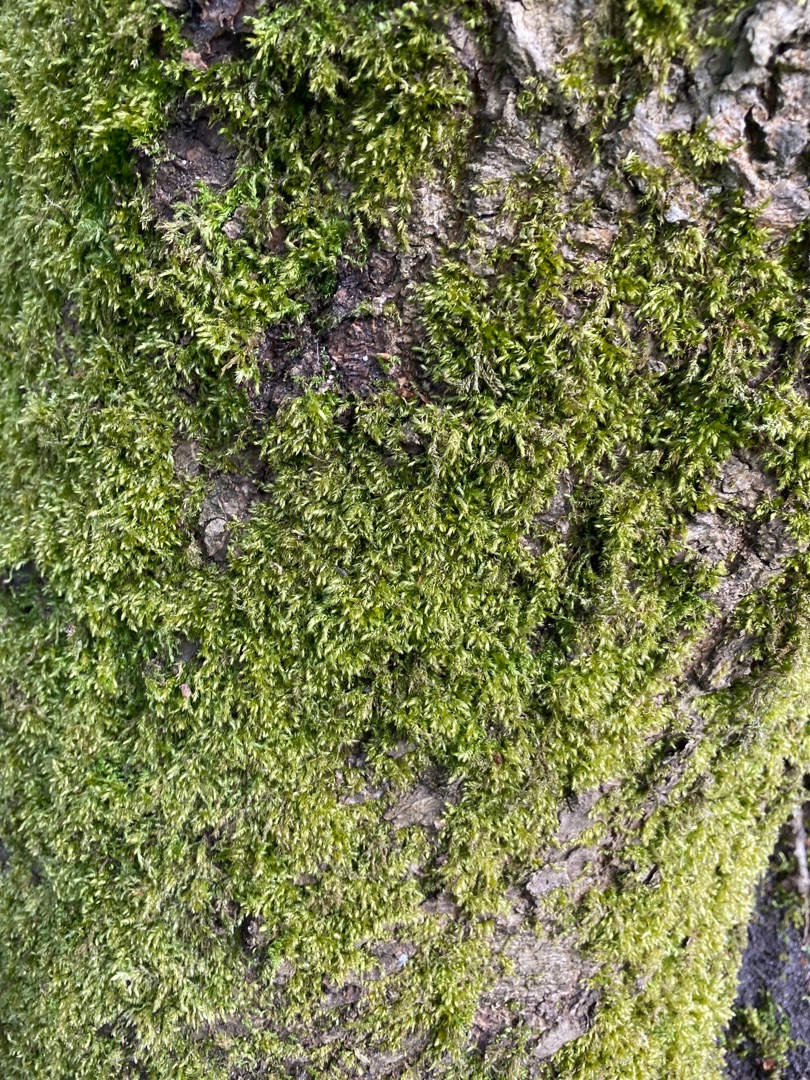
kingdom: Plantae
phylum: Bryophyta
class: Bryopsida
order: Hypnales
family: Brachytheciaceae
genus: Brachythecium
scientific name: Brachythecium rutabulum
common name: Almindelig kortkapsel
